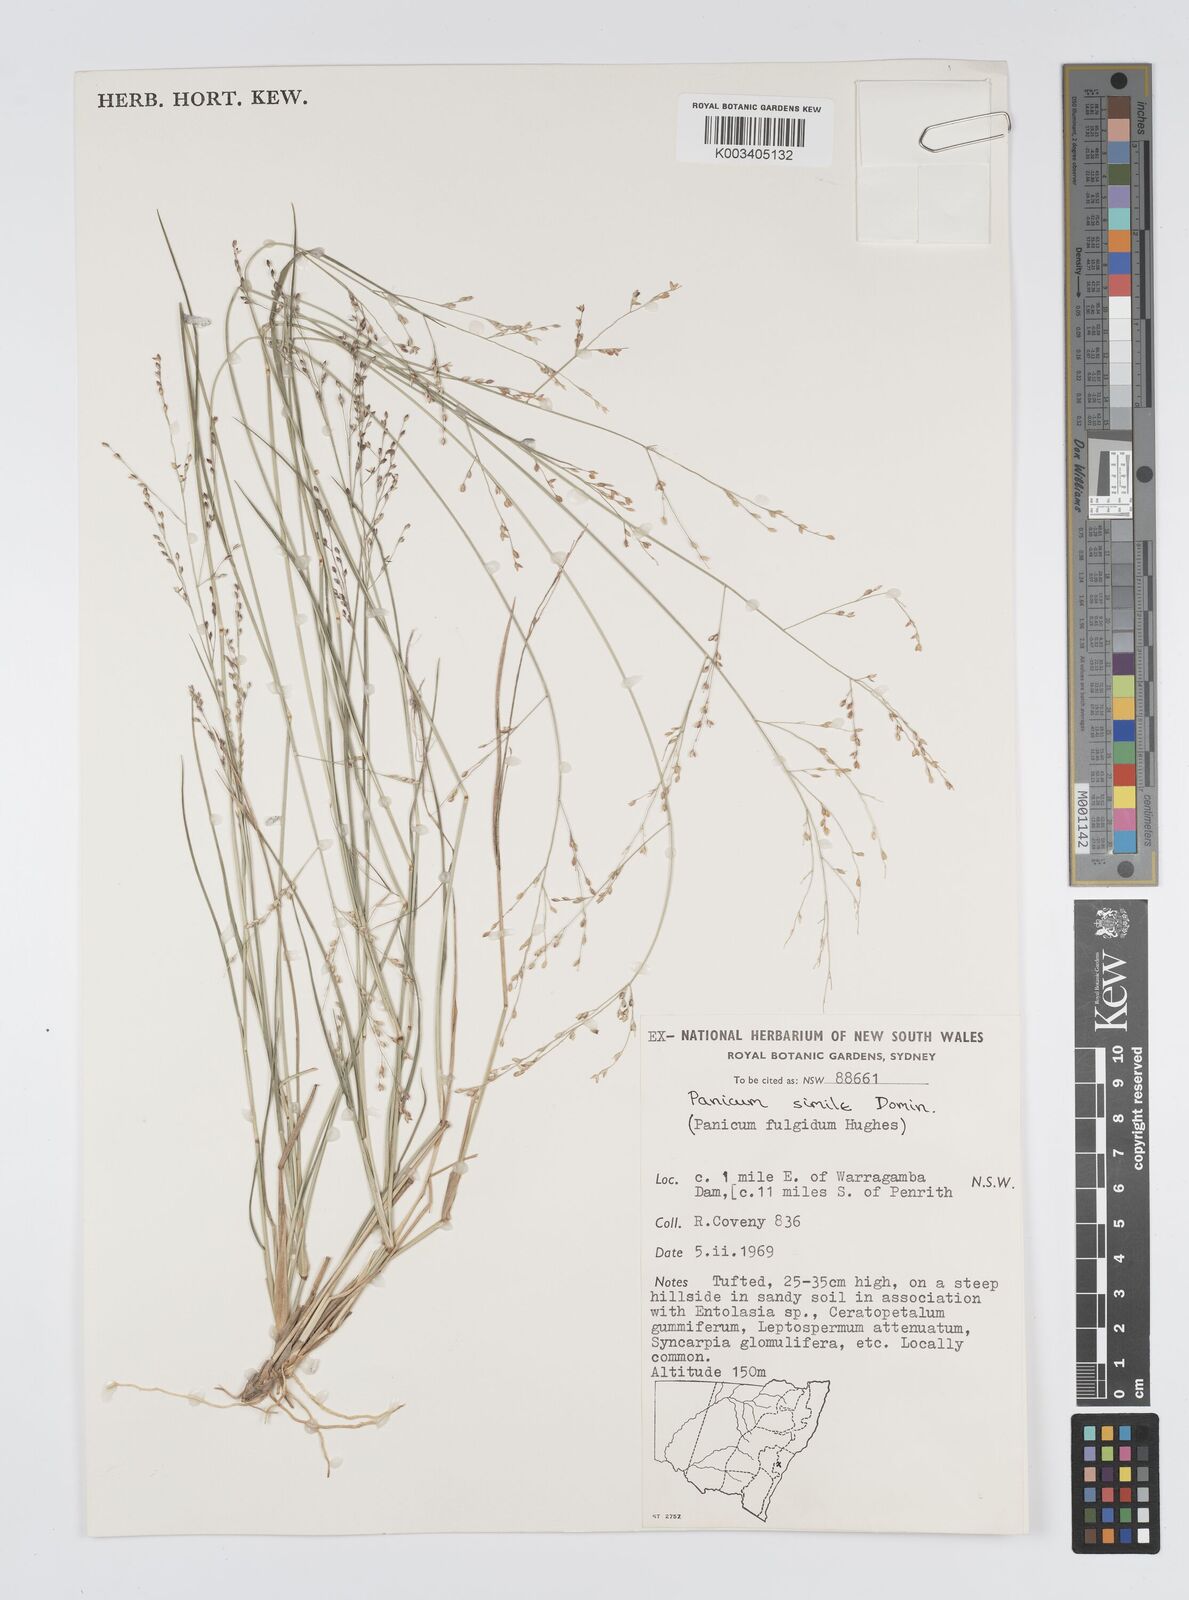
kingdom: Plantae
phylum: Tracheophyta
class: Liliopsida
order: Poales
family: Poaceae
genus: Panicum
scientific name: Panicum simile
